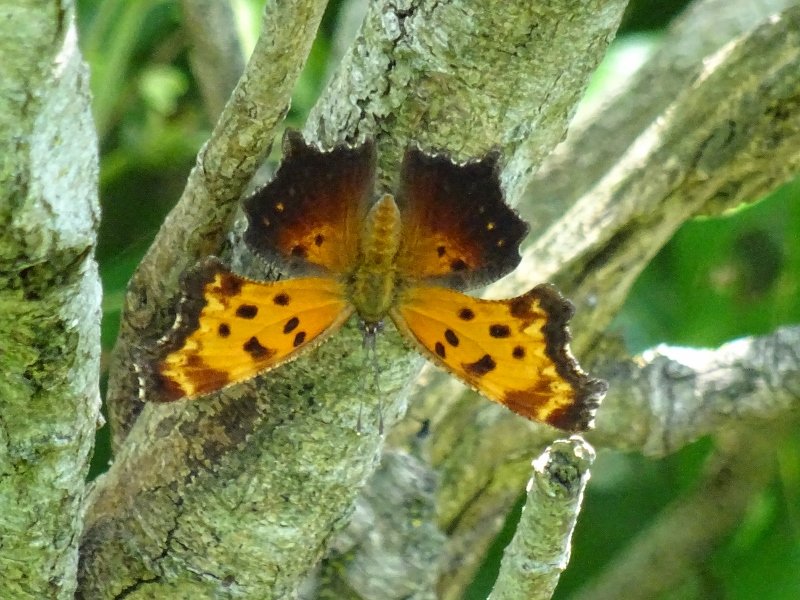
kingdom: Animalia
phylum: Arthropoda
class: Insecta
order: Lepidoptera
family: Nymphalidae
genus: Polygonia
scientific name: Polygonia progne
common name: Gray Comma
